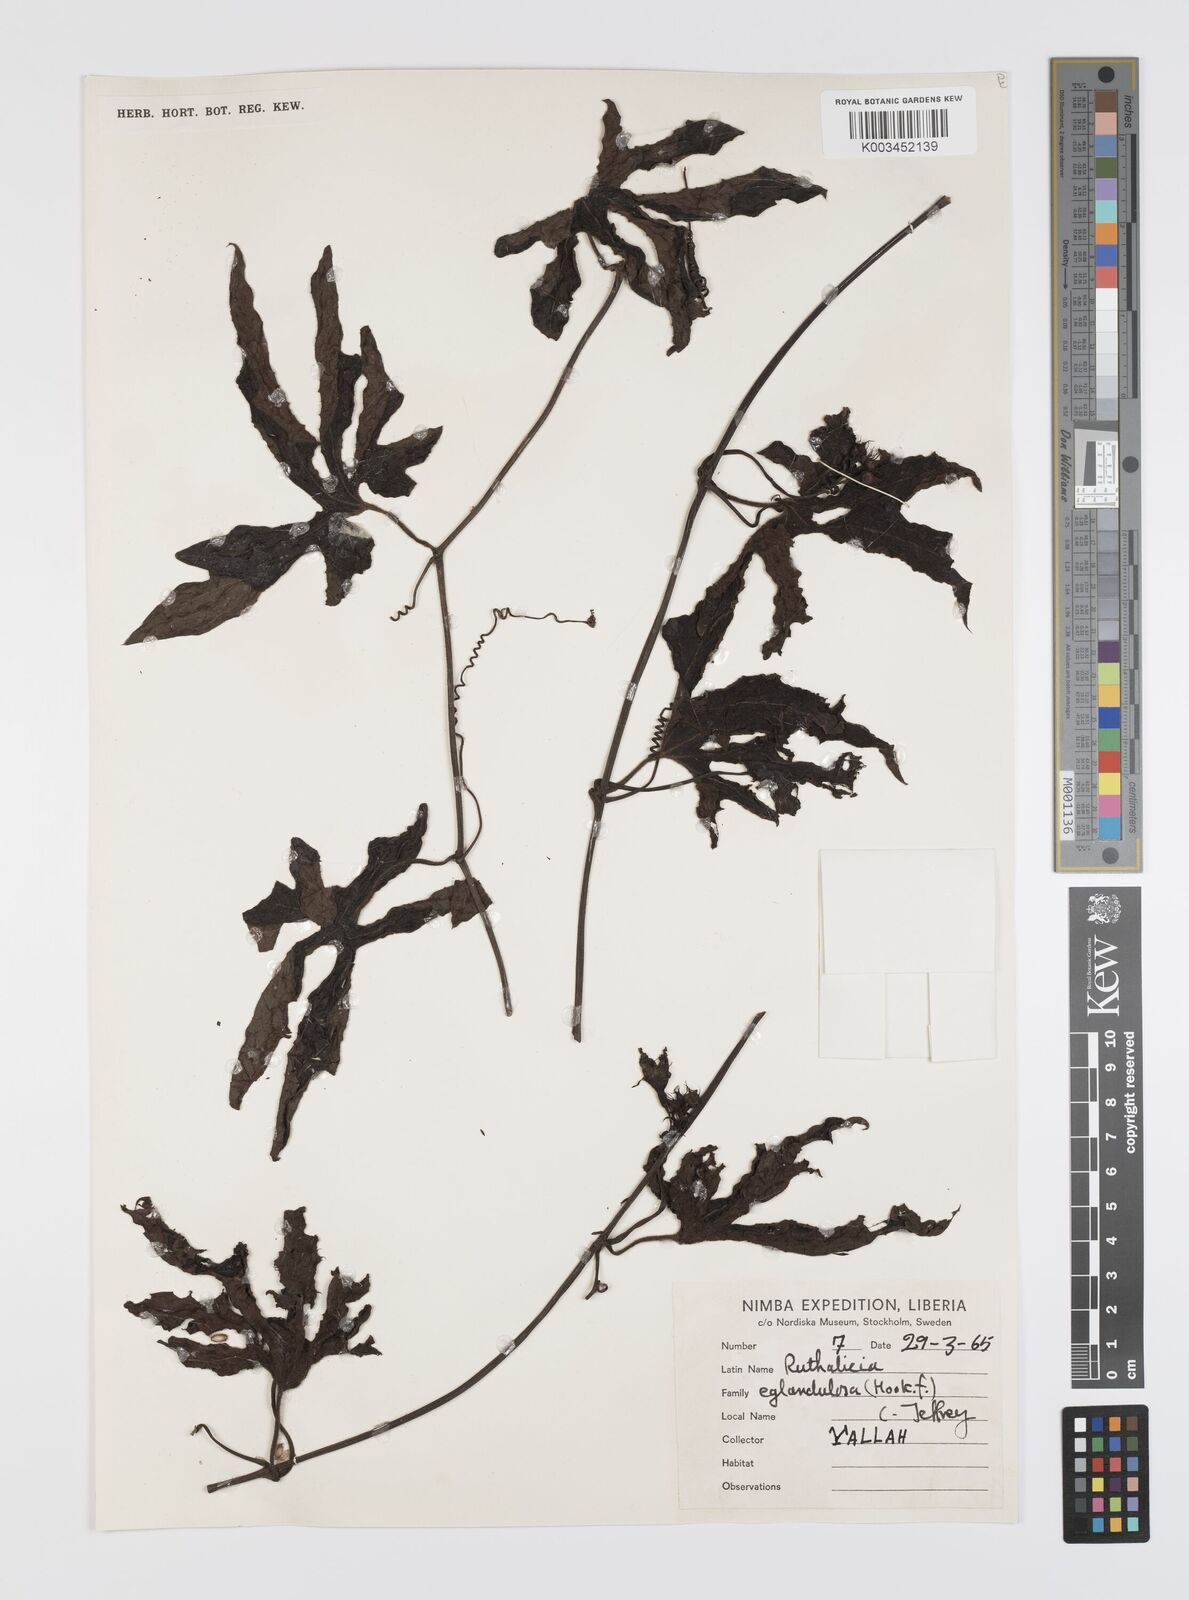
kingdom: Plantae
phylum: Tracheophyta
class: Magnoliopsida
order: Cucurbitales
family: Cucurbitaceae
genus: Ruthalicia
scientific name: Ruthalicia eglandulosa
